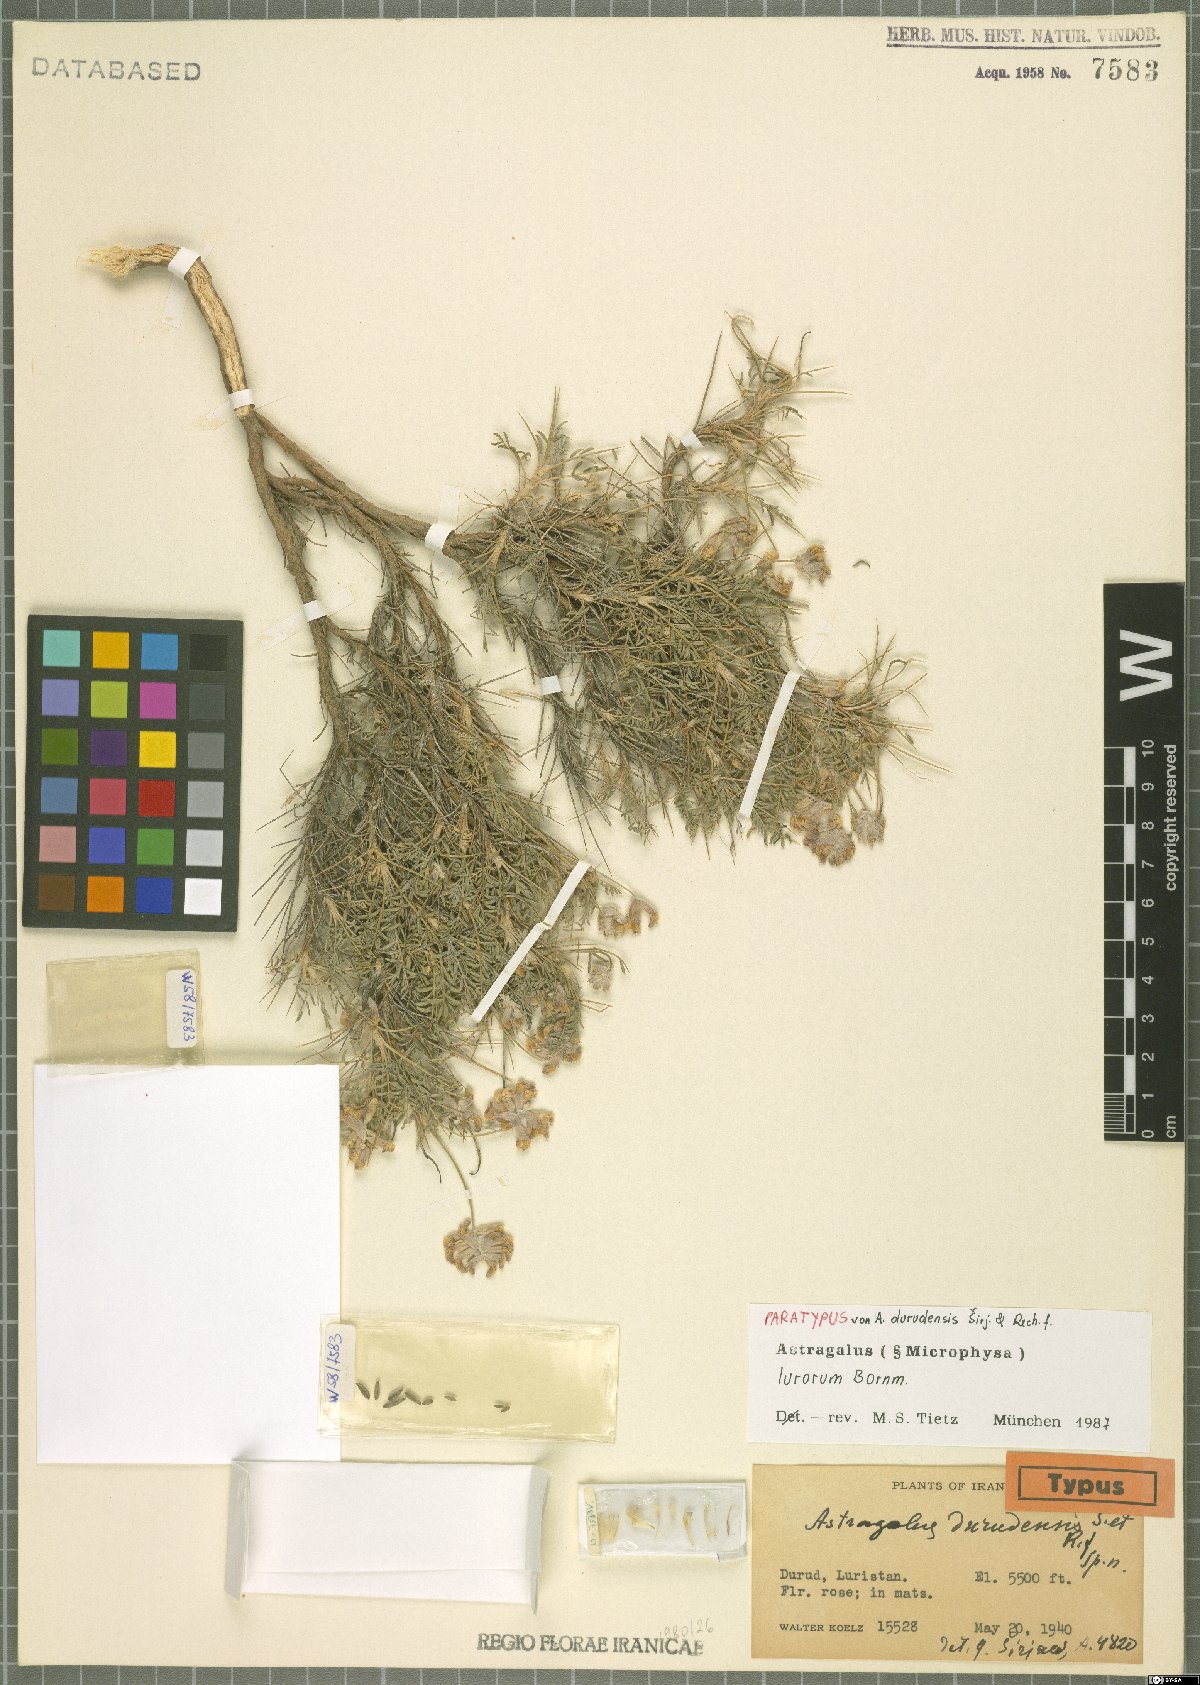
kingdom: Plantae
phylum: Tracheophyta
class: Magnoliopsida
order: Fabales
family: Fabaceae
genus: Astragalus
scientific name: Astragalus lurorum
